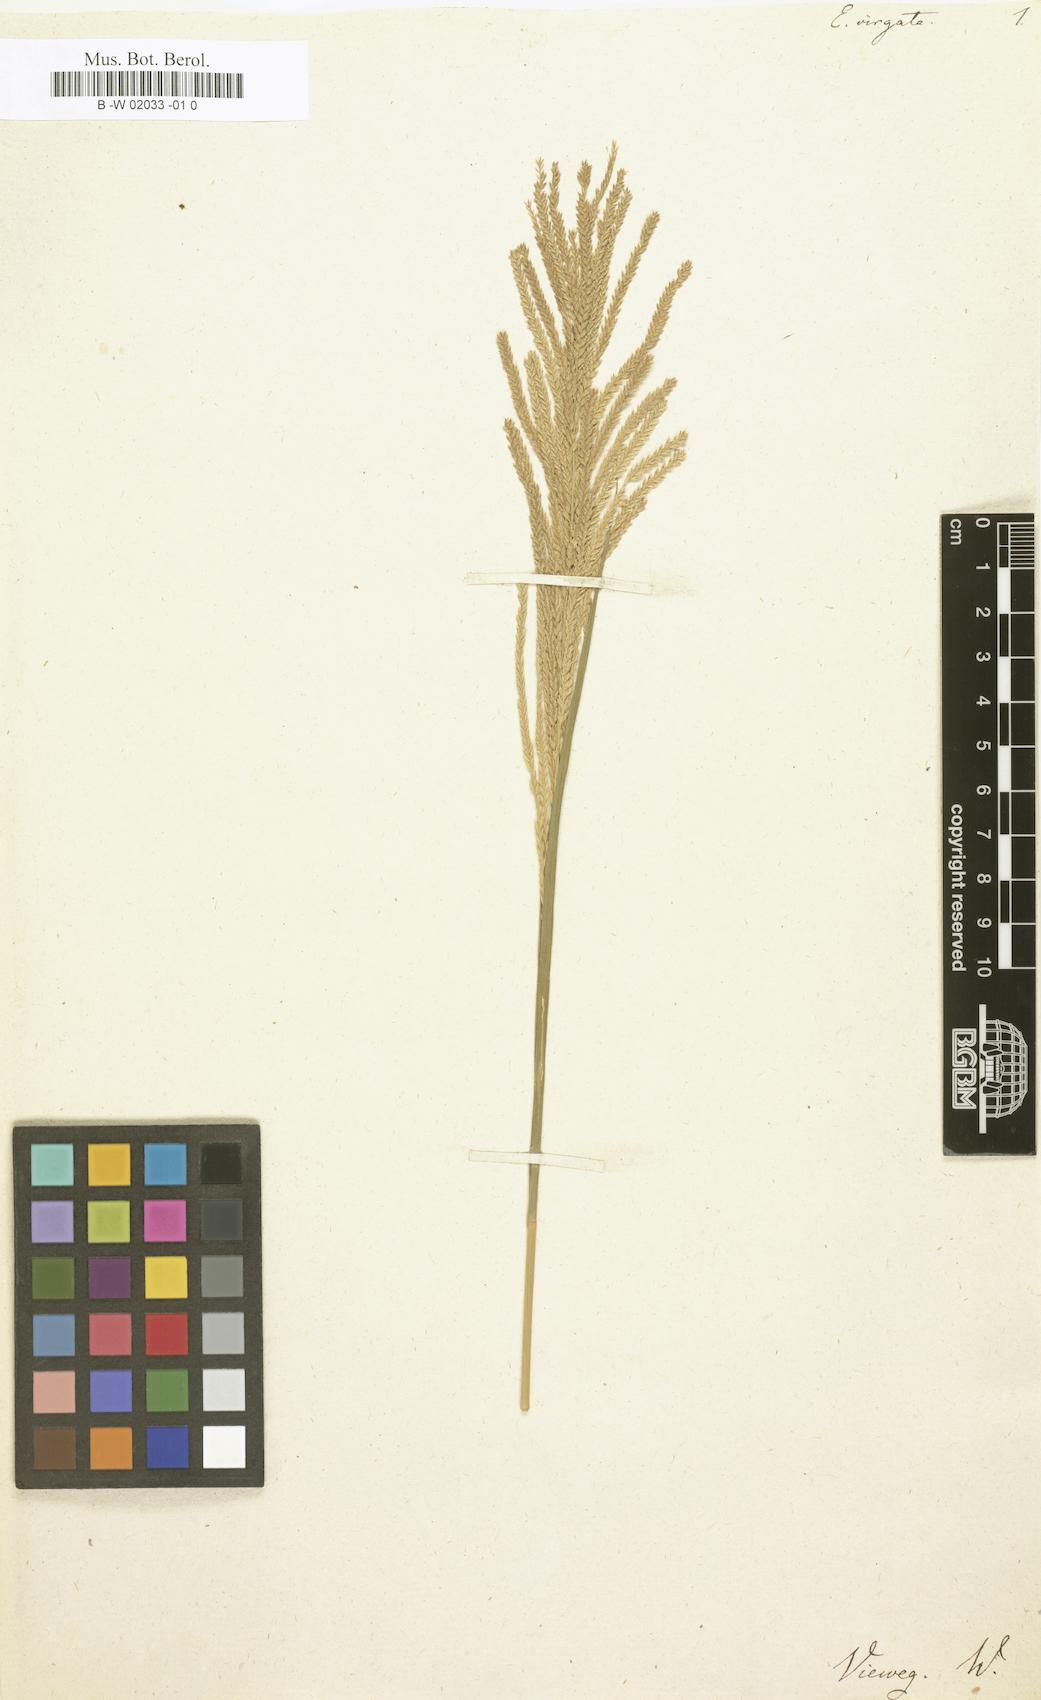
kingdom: Plantae
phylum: Tracheophyta
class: Liliopsida
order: Poales
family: Poaceae
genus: Leptochloa
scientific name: Leptochloa virgata
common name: Tropical sprangletop
